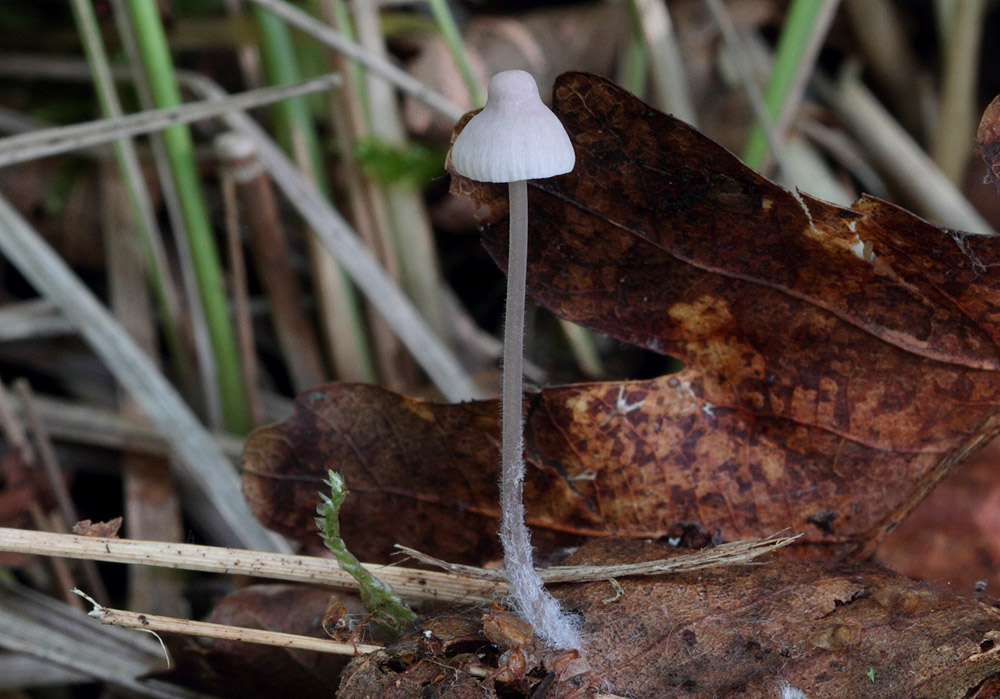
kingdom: Fungi
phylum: Basidiomycota
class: Agaricomycetes
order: Agaricales
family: Mycenaceae
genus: Mycena
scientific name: Mycena albidolilacea
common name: lyslilla huesvamp
